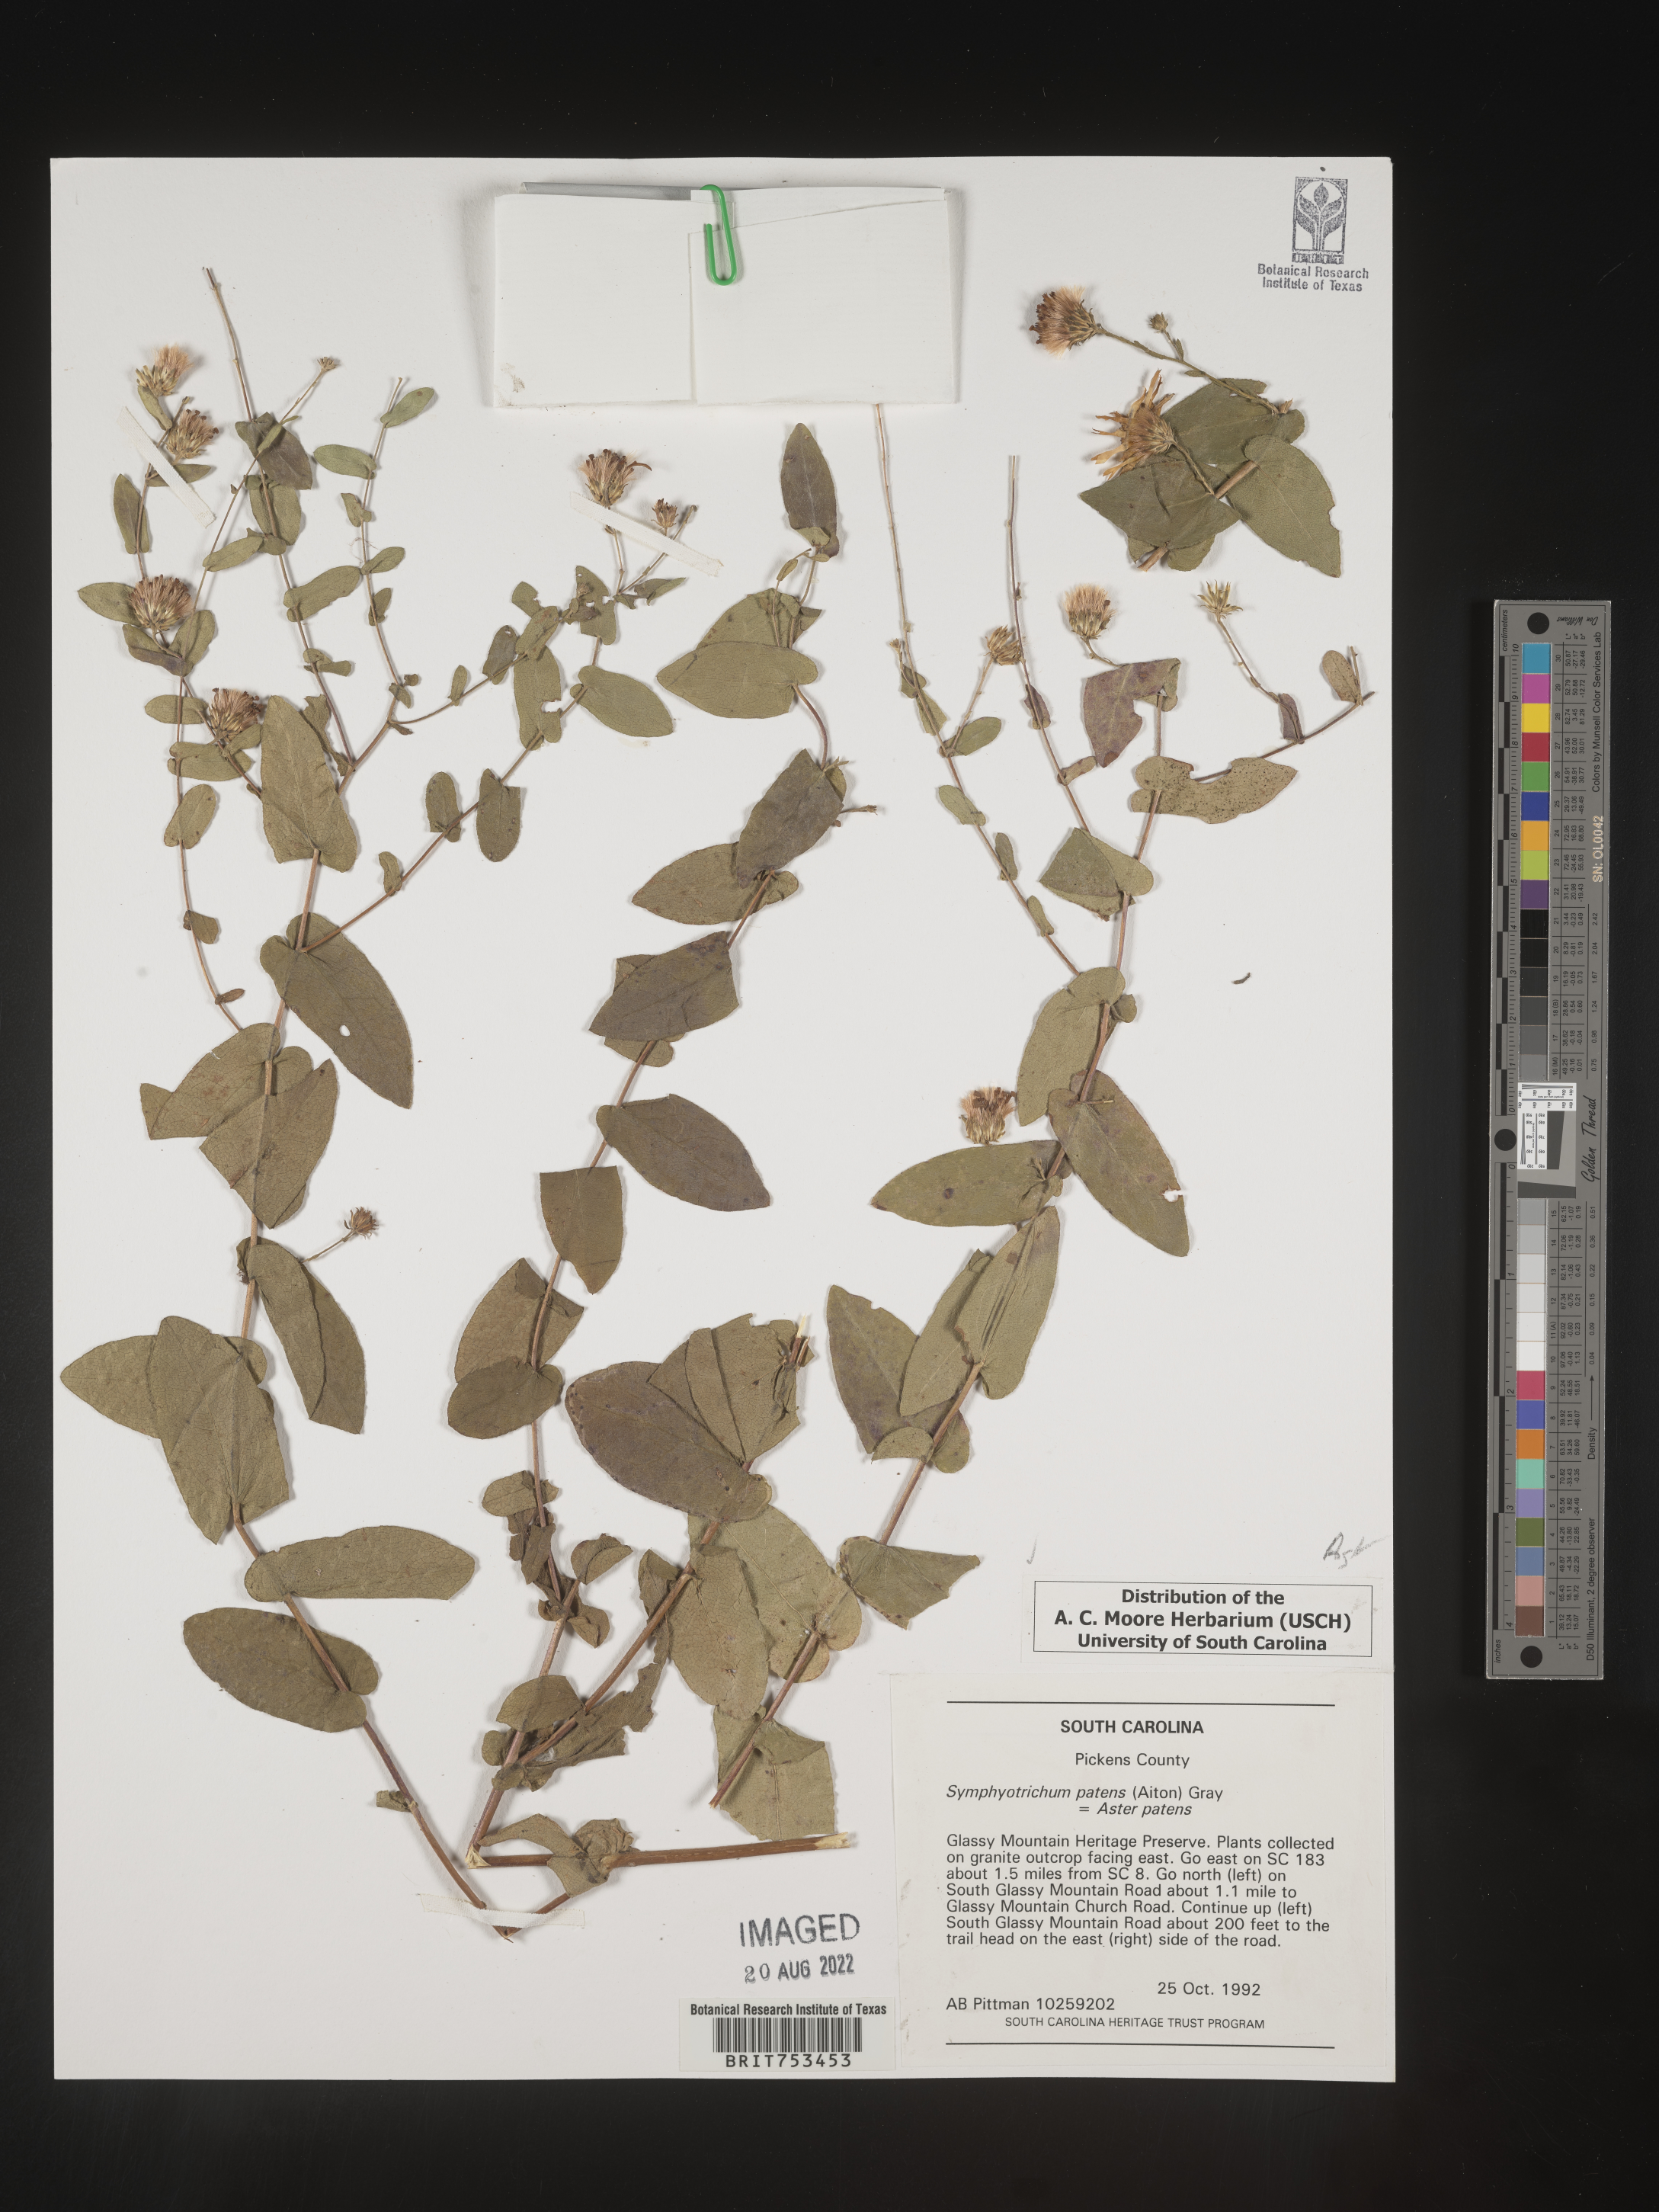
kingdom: Plantae
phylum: Tracheophyta
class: Magnoliopsida
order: Asterales
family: Asteraceae
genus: Symphyotrichum
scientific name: Symphyotrichum patens
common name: Late purple aster
